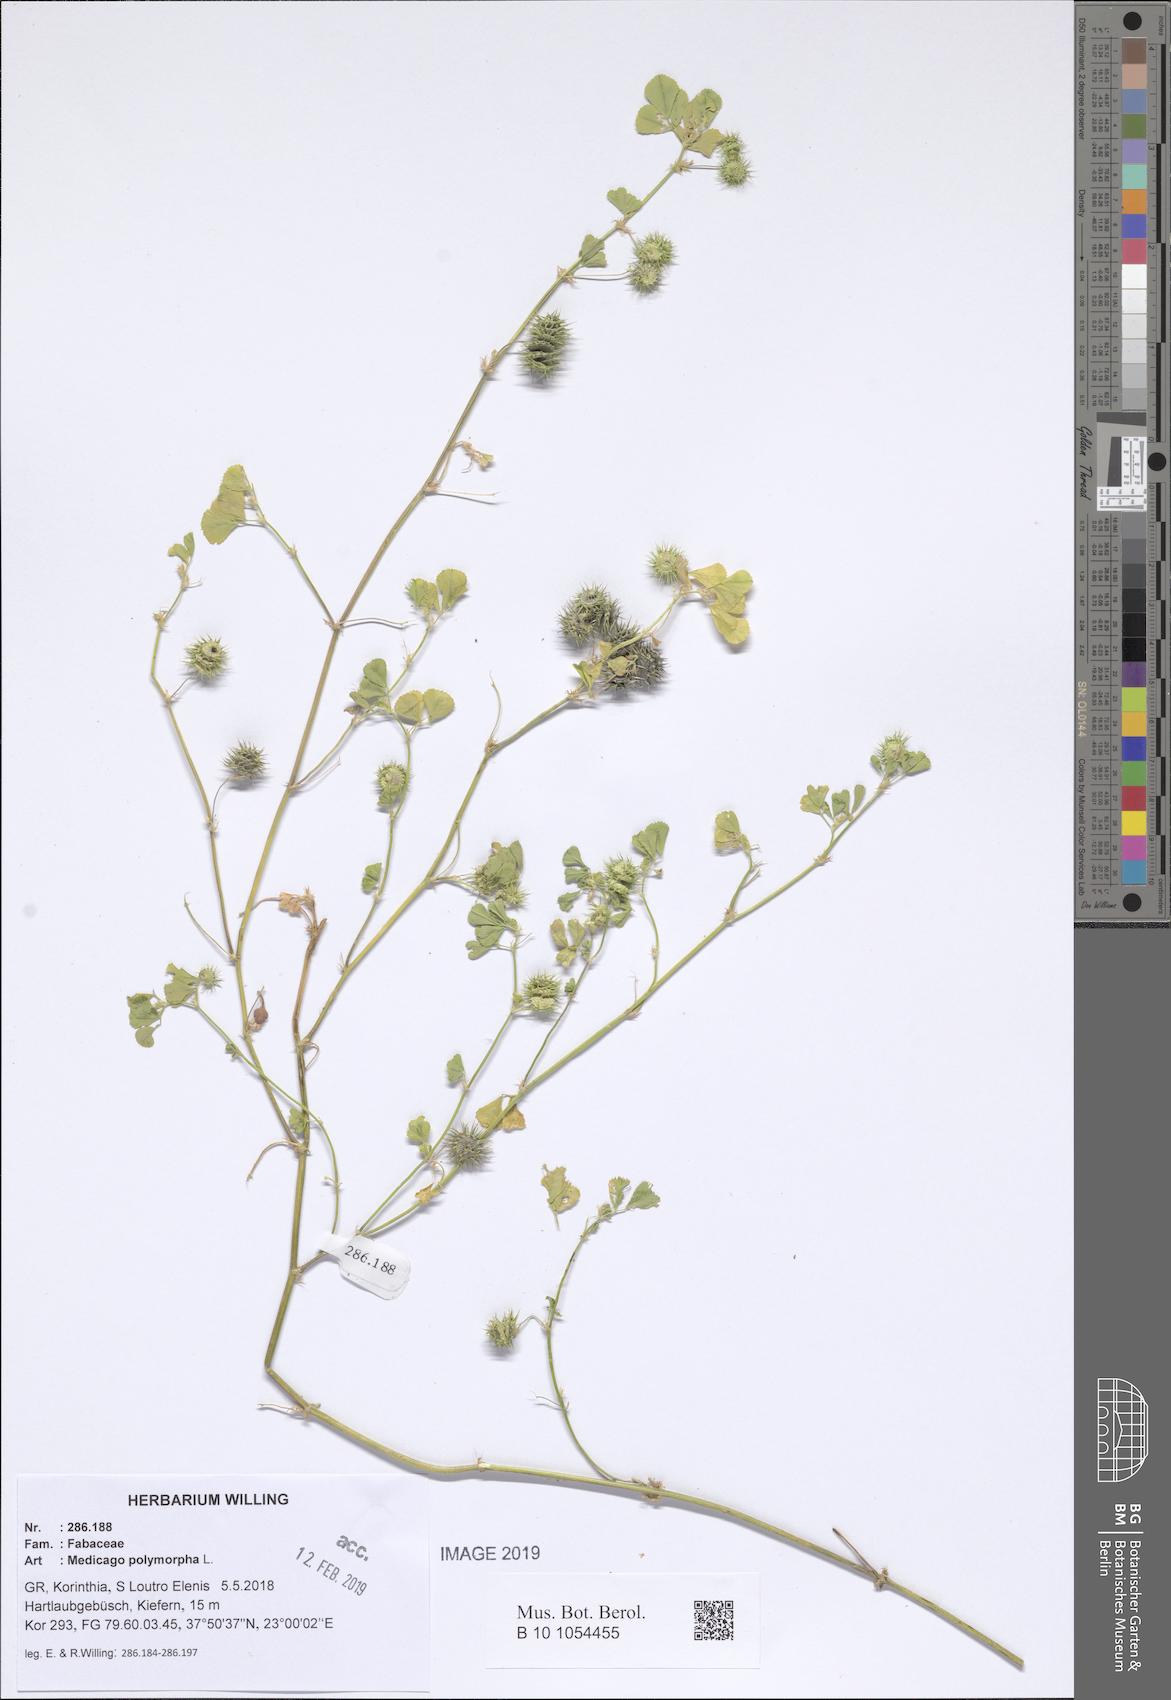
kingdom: Plantae
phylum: Tracheophyta
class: Magnoliopsida
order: Fabales
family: Fabaceae
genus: Medicago
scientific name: Medicago polymorpha
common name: Burclover
